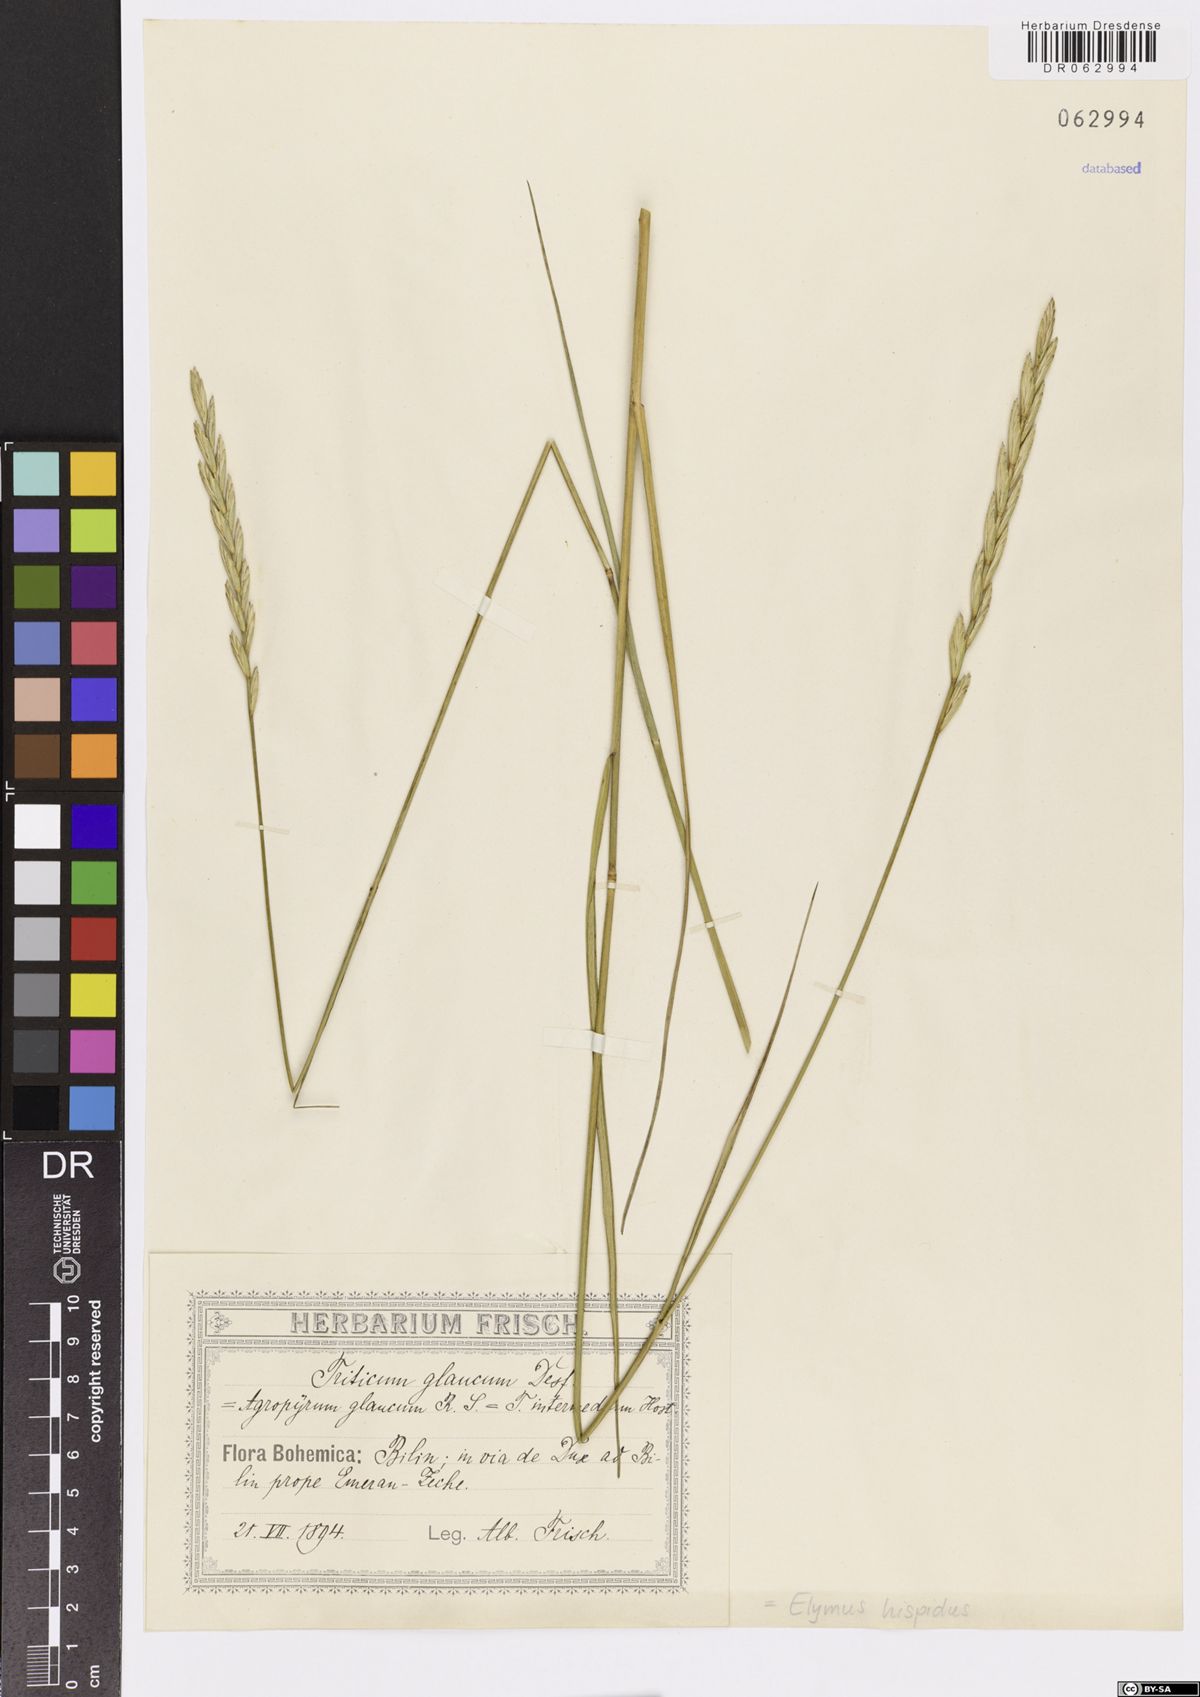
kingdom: Plantae
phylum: Tracheophyta
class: Liliopsida
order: Poales
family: Poaceae
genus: Thinopyrum
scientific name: Thinopyrum intermedium
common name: Intermediate wheatgrass
